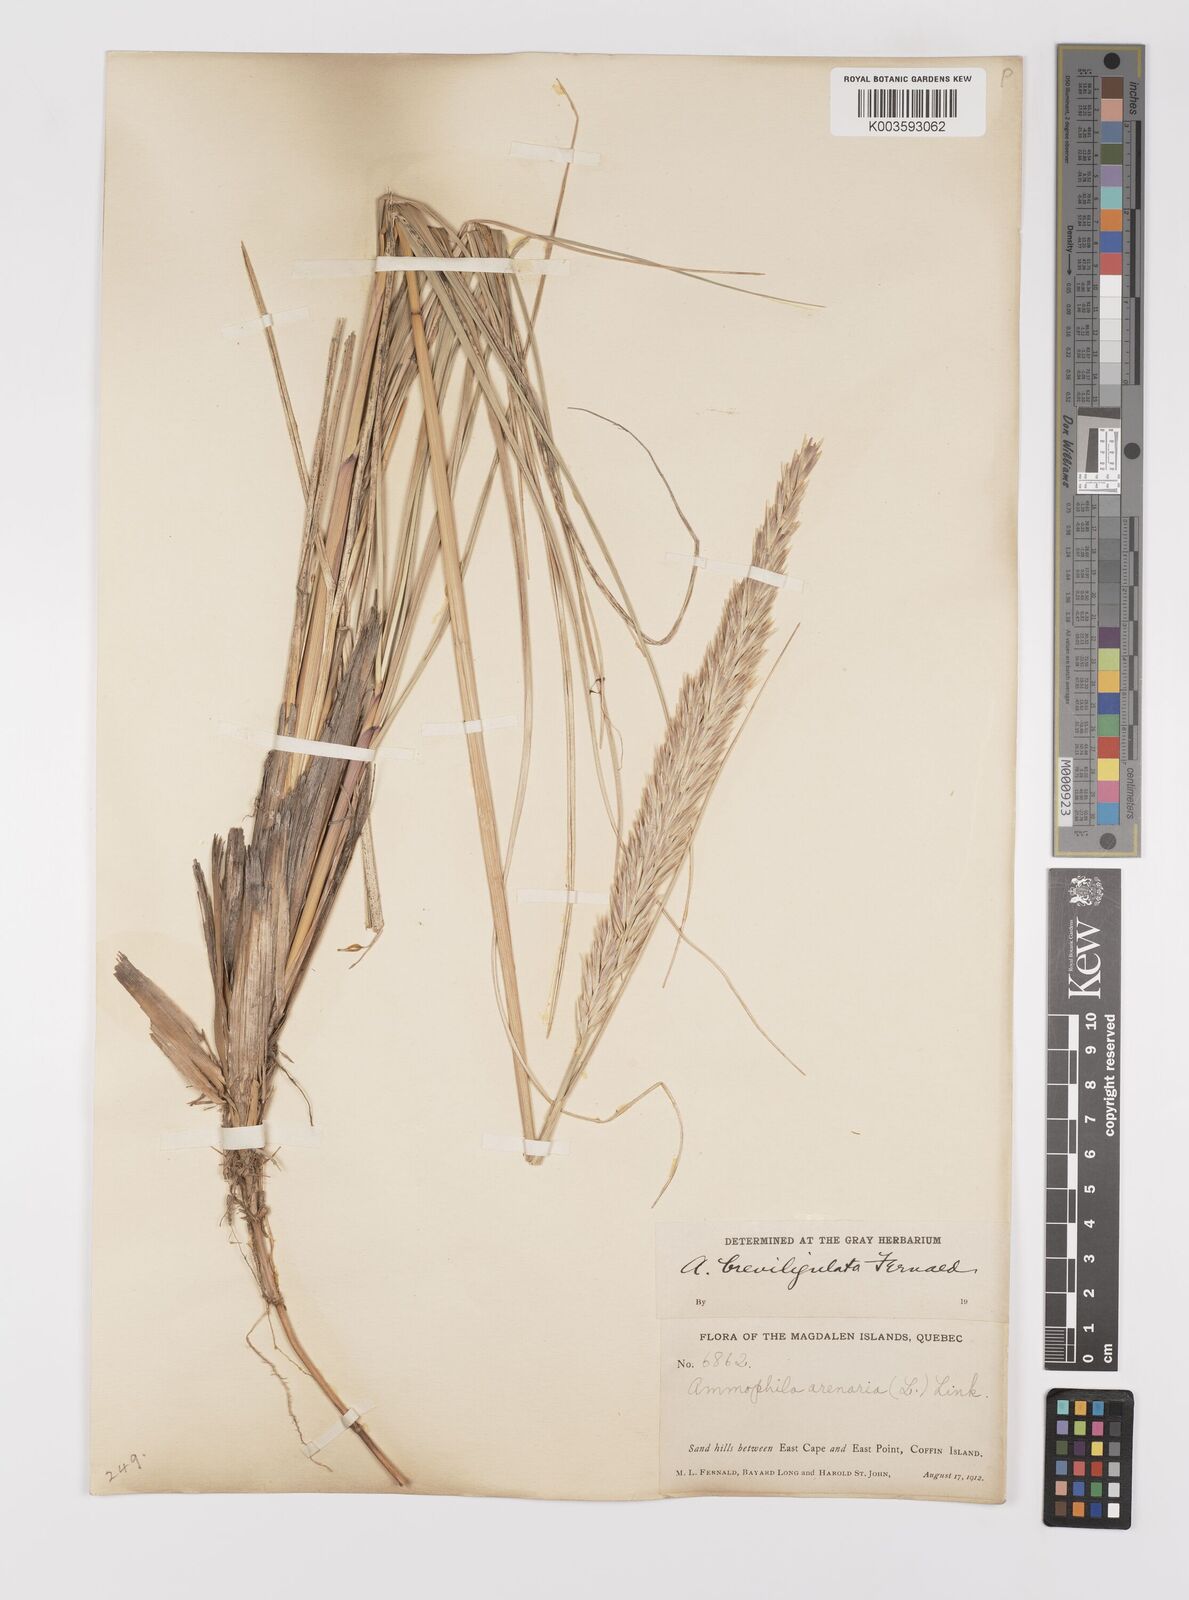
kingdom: Plantae
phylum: Tracheophyta
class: Liliopsida
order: Poales
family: Poaceae
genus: Calamagrostis
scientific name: Calamagrostis breviligulata
